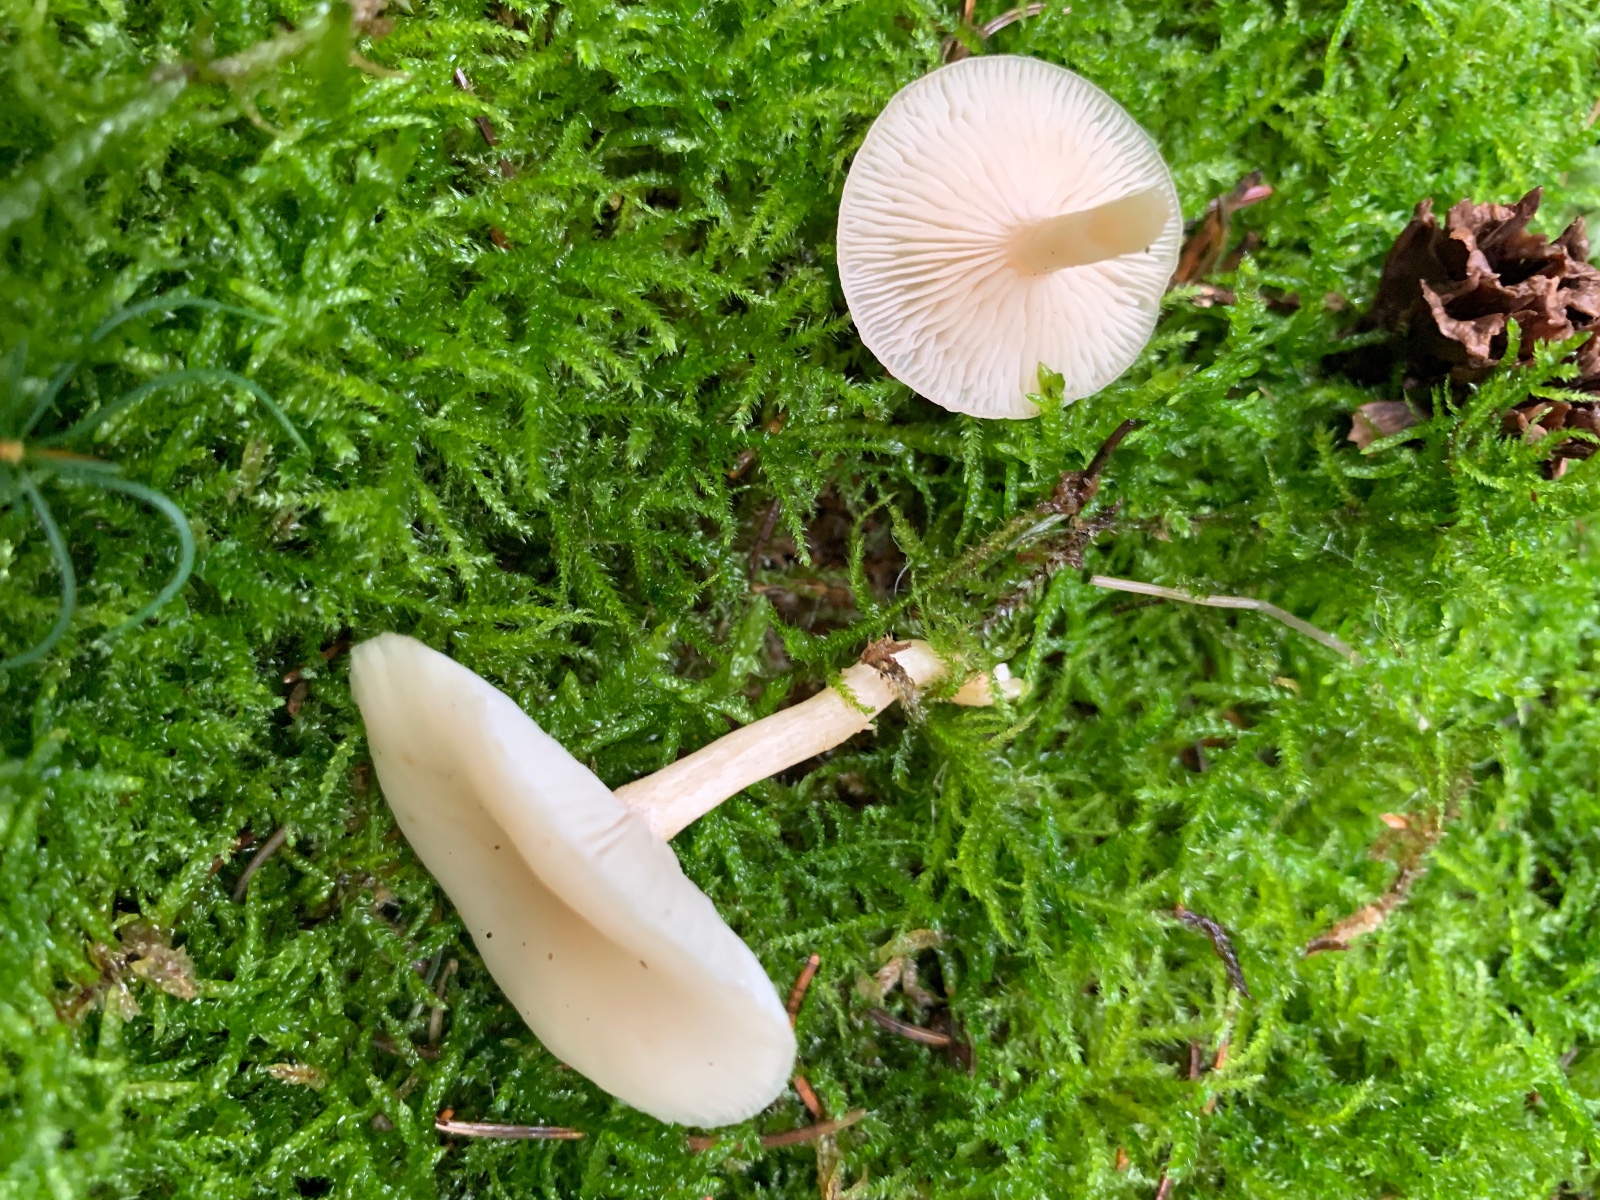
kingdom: Fungi
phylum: Basidiomycota
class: Agaricomycetes
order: Agaricales
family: Tricholomataceae
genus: Clitocybe
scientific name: Clitocybe fragrans
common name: vellugtende tragthat
